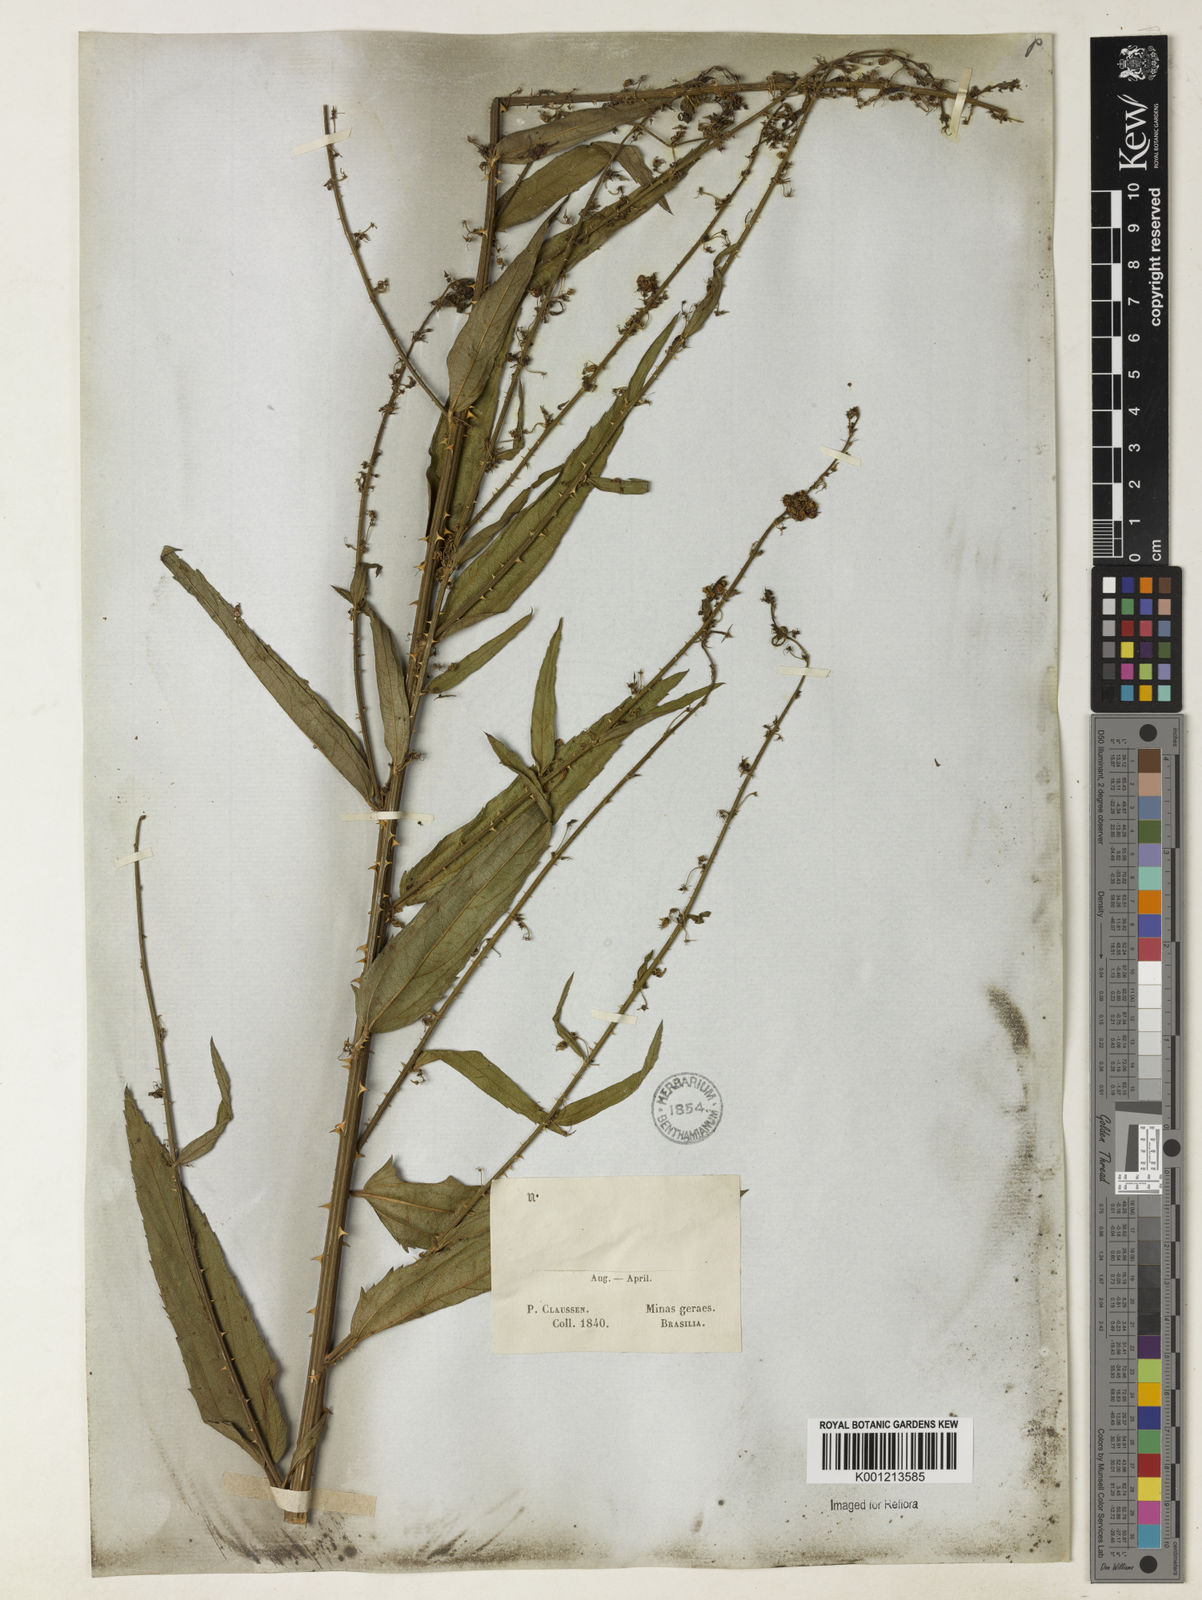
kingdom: Plantae
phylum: Tracheophyta
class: Magnoliopsida
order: Malvales
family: Malvaceae
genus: Byttneria
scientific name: Byttneria
